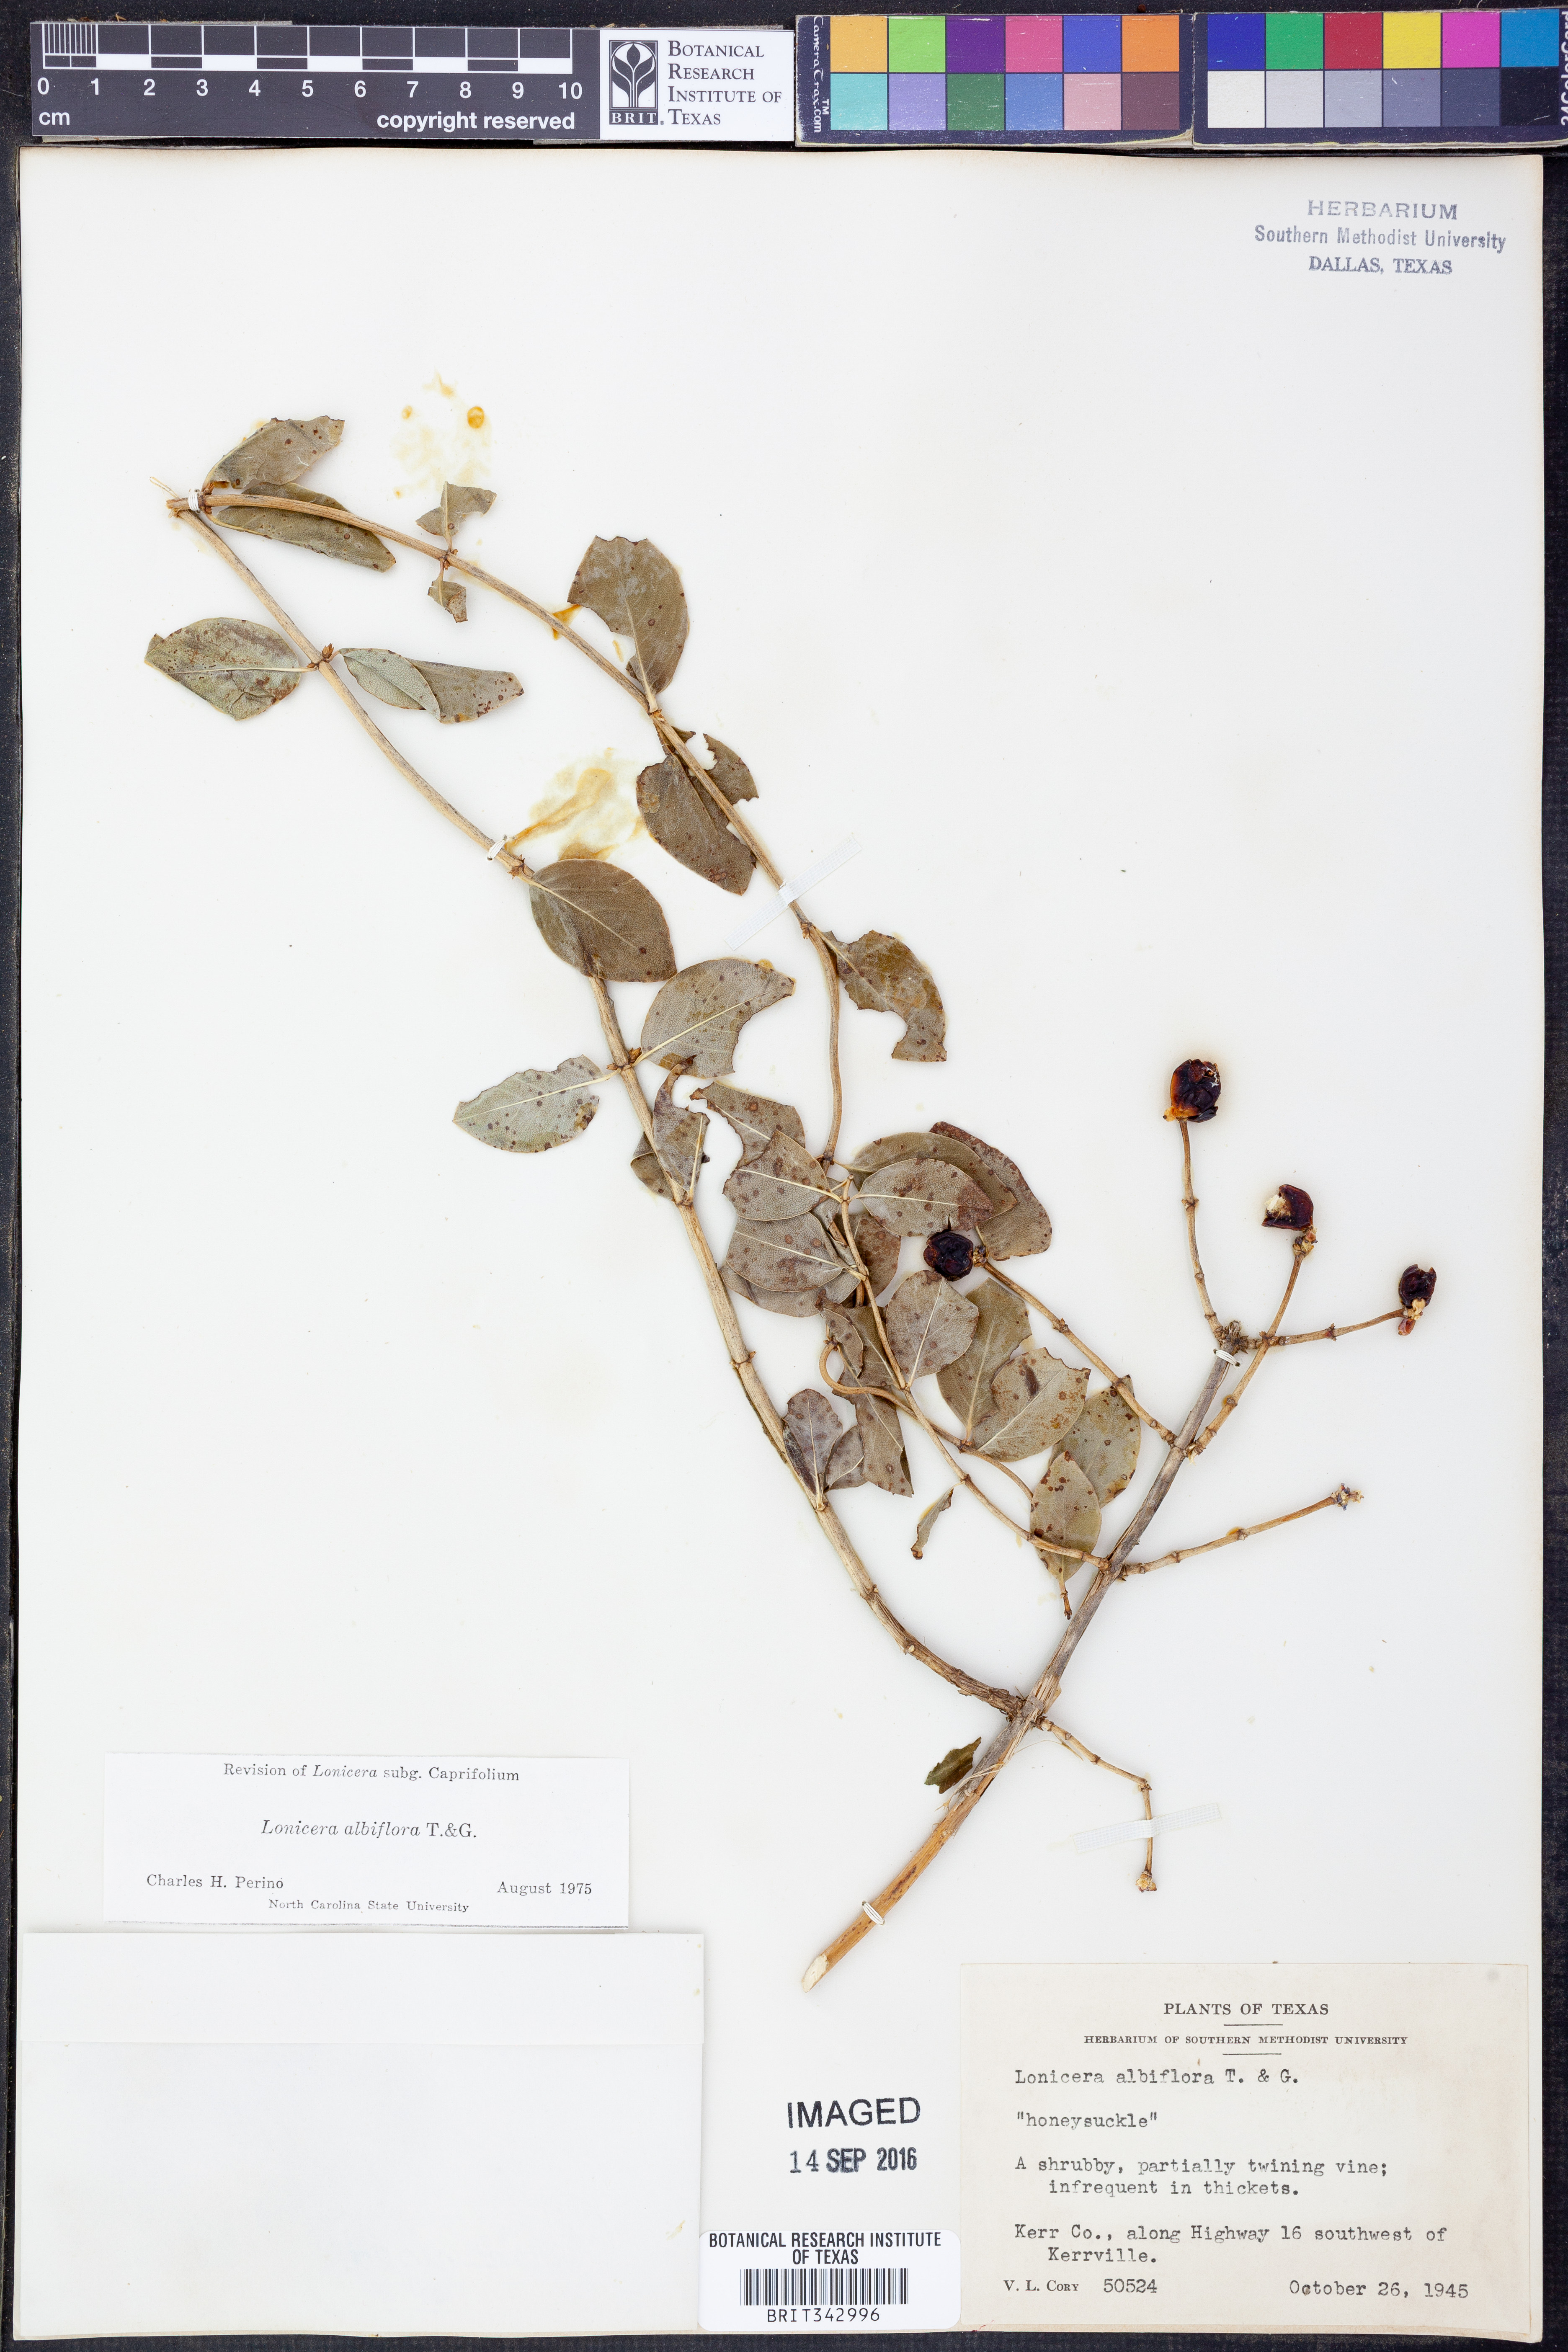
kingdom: Plantae
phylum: Tracheophyta
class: Magnoliopsida
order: Dipsacales
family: Caprifoliaceae
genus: Lonicera
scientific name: Lonicera albiflora
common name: White honeysuckle
